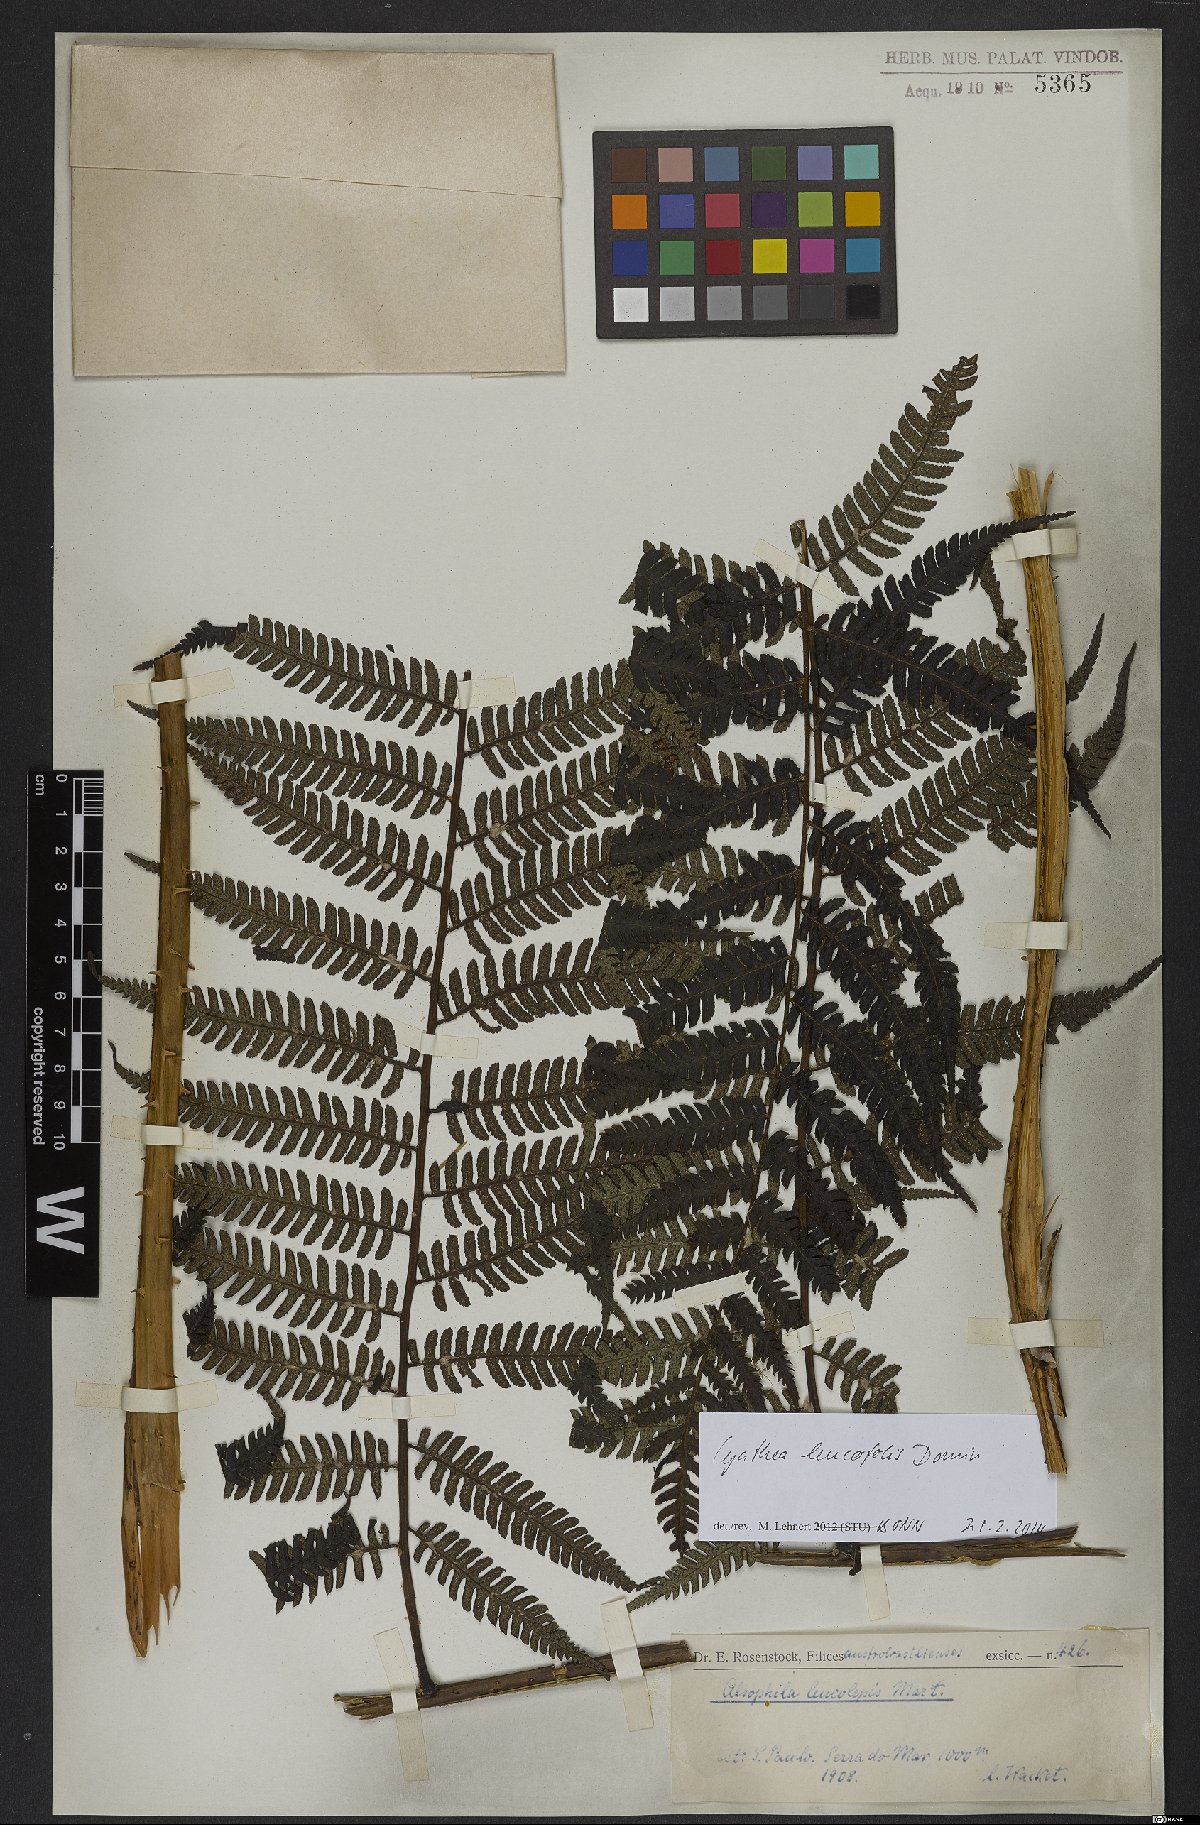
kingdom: Plantae
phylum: Tracheophyta
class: Polypodiopsida
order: Cyatheales
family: Cyatheaceae
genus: Cyathea
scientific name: Cyathea leucofolis
